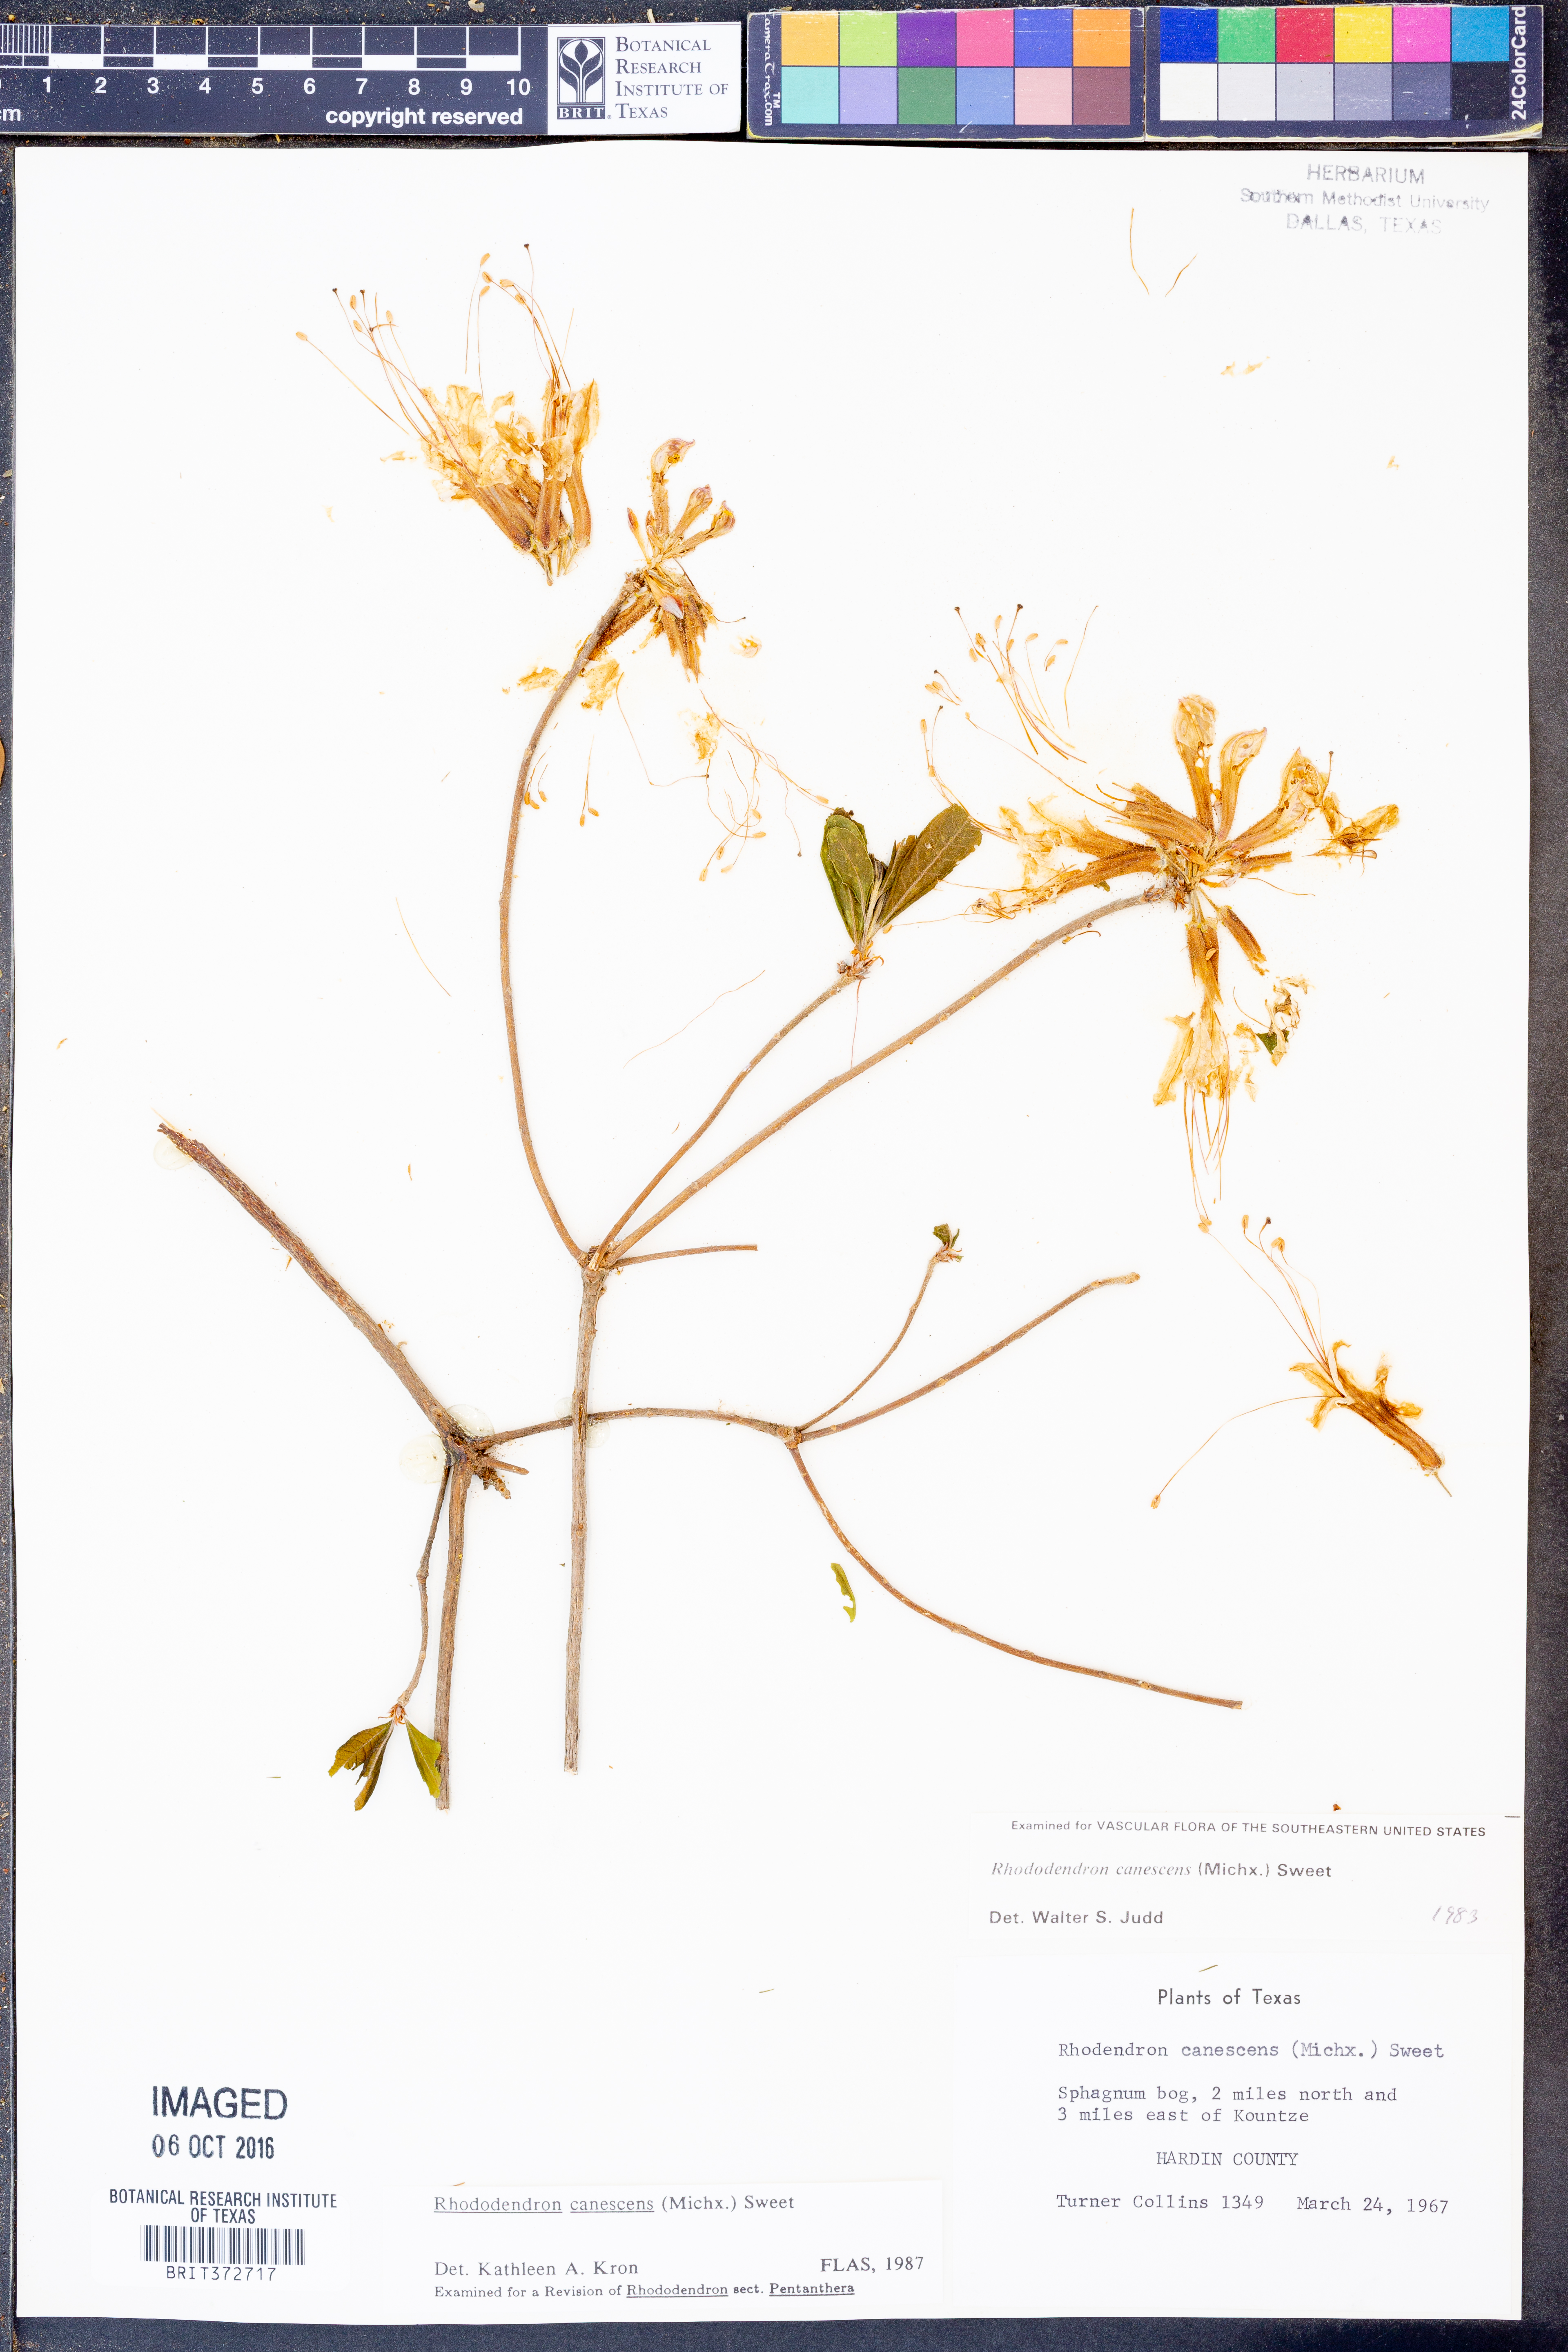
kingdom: Plantae
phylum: Tracheophyta
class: Magnoliopsida
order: Ericales
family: Ericaceae
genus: Rhododendron
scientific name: Rhododendron canescens
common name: Mountain azalea
